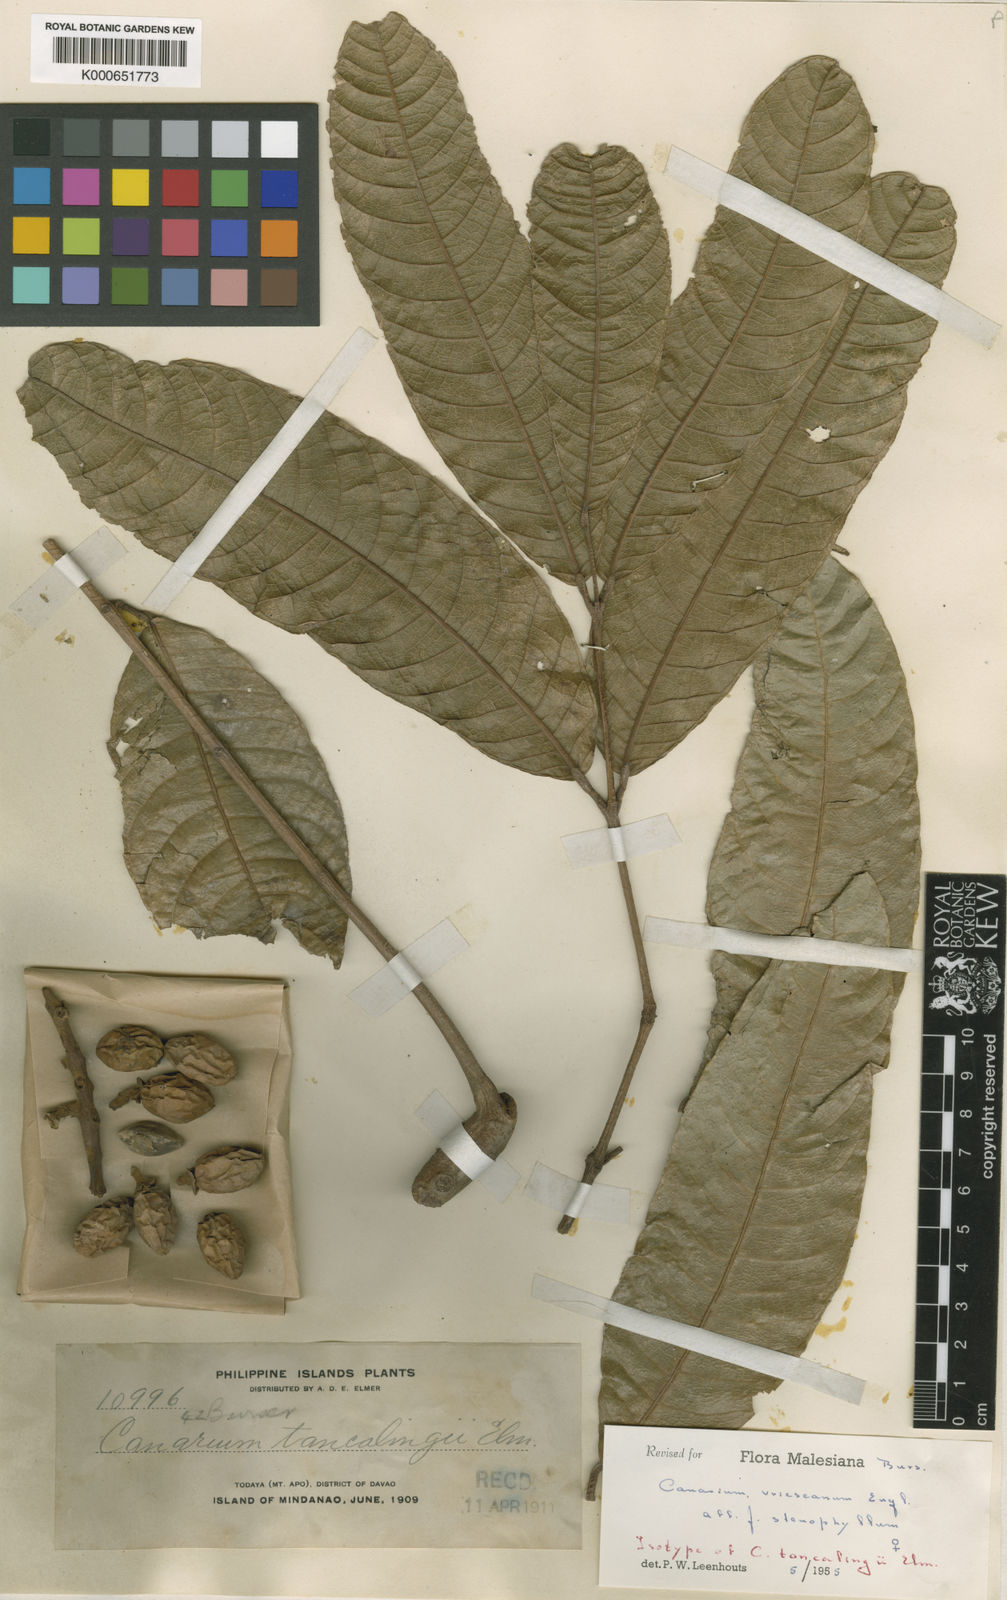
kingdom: Plantae
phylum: Tracheophyta
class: Magnoliopsida
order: Sapindales
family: Burseraceae
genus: Canarium
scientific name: Canarium vrieseanum
